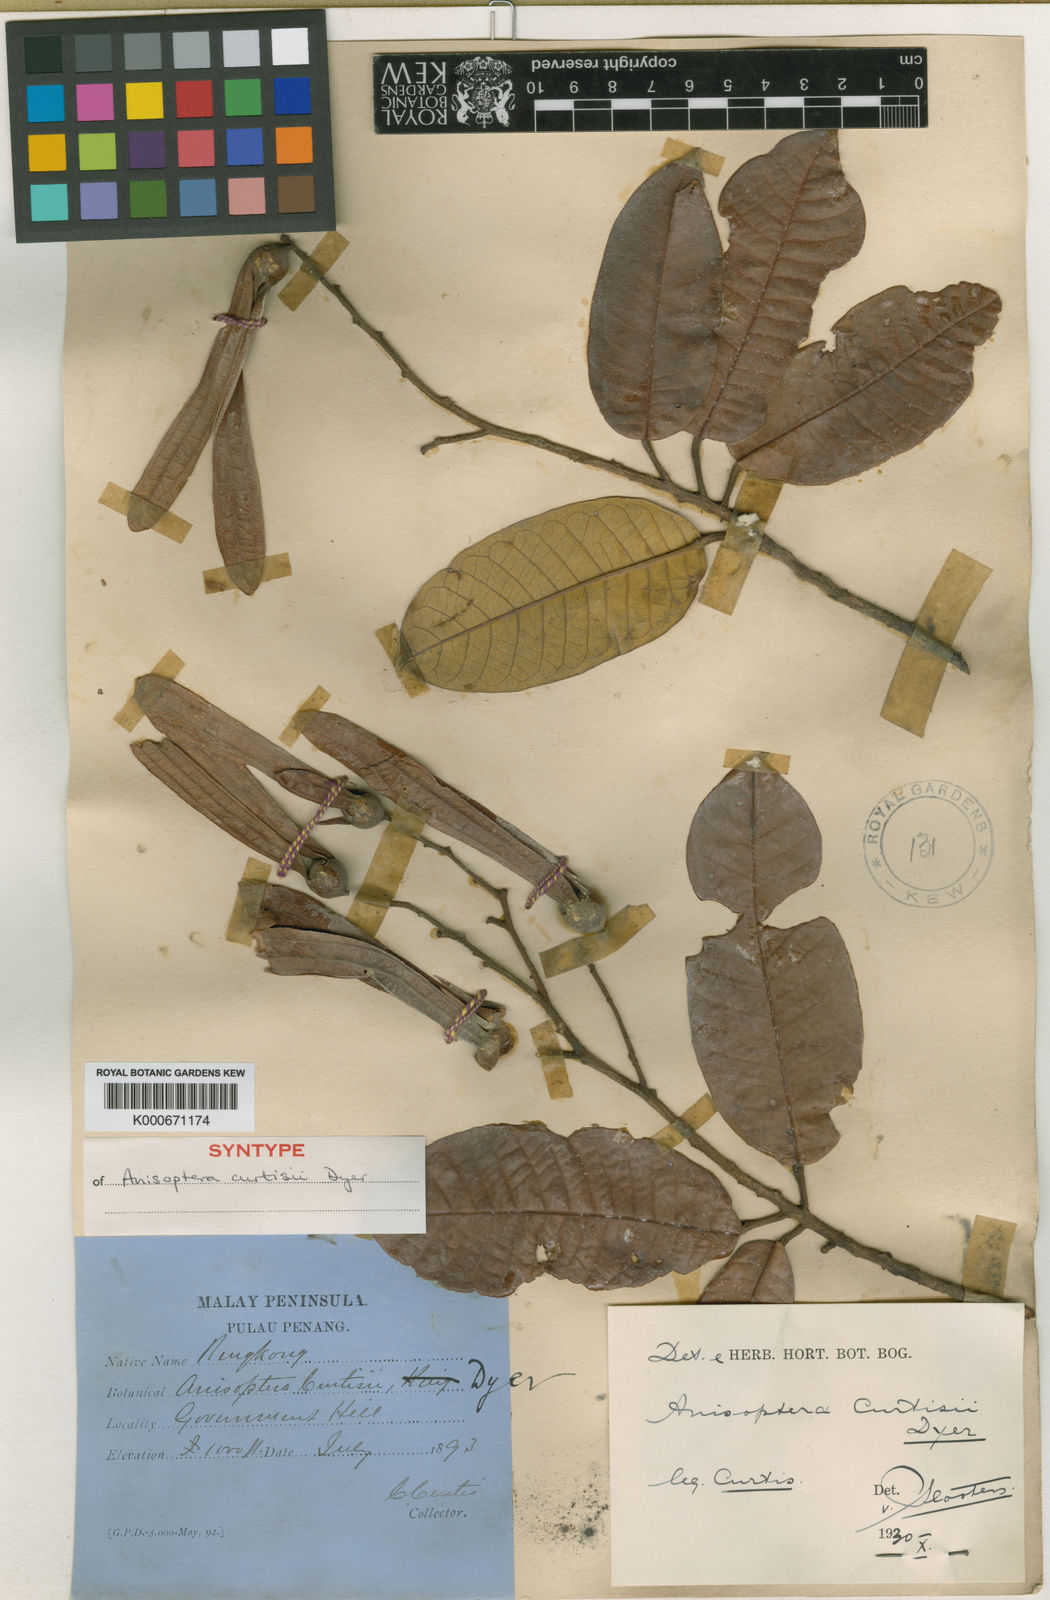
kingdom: Plantae
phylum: Tracheophyta
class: Magnoliopsida
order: Malvales
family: Dipterocarpaceae
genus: Anisoptera
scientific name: Anisoptera curtisii
